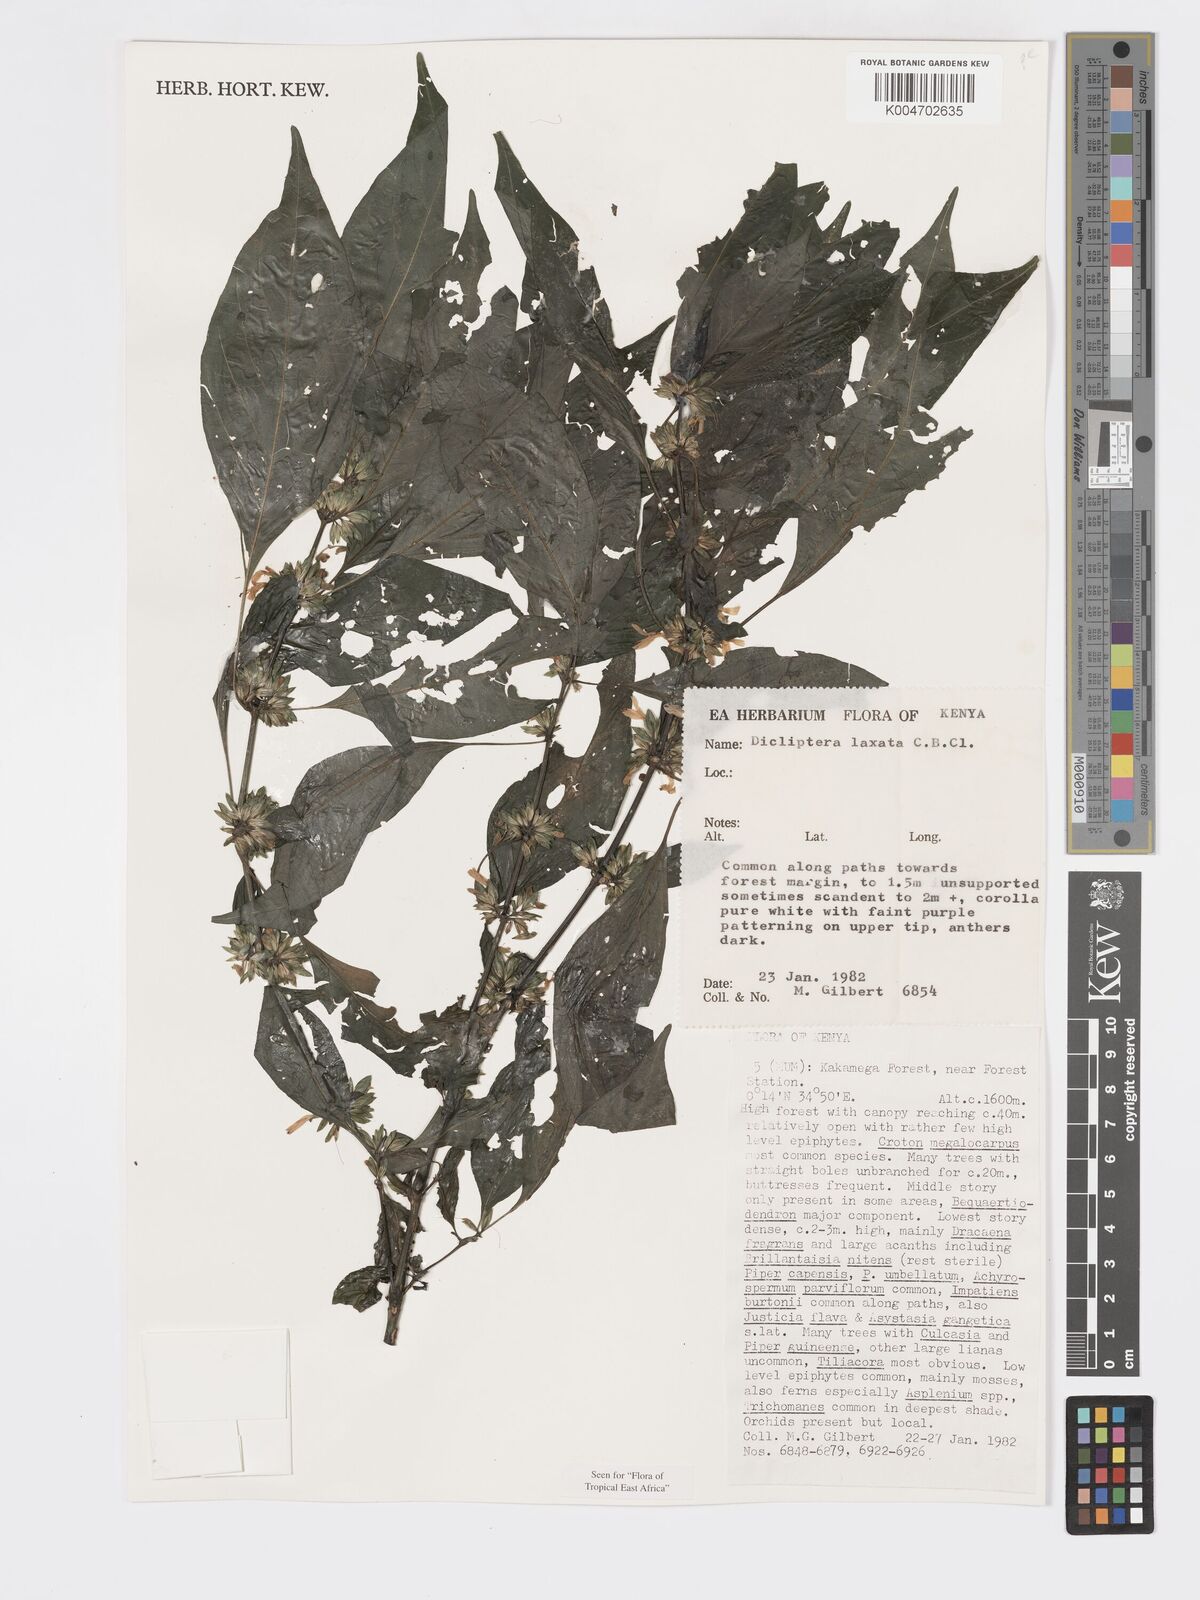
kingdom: Plantae
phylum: Tracheophyta
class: Magnoliopsida
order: Lamiales
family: Acanthaceae
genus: Dicliptera
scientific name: Dicliptera laxata
